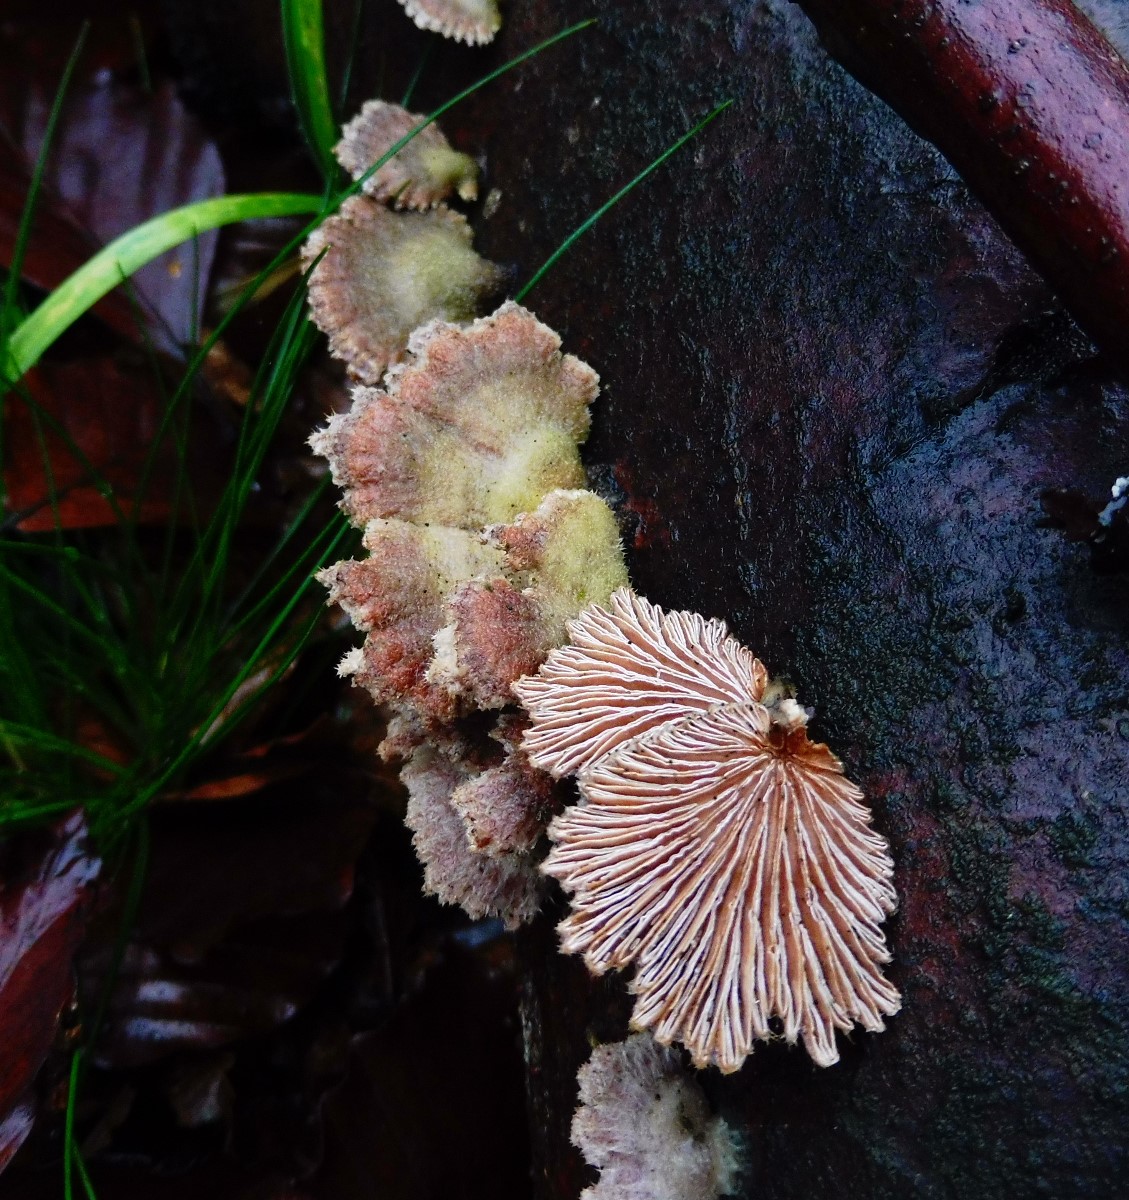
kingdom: Fungi
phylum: Basidiomycota
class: Agaricomycetes
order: Agaricales
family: Schizophyllaceae
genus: Schizophyllum
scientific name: Schizophyllum commune
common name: kløvblad
